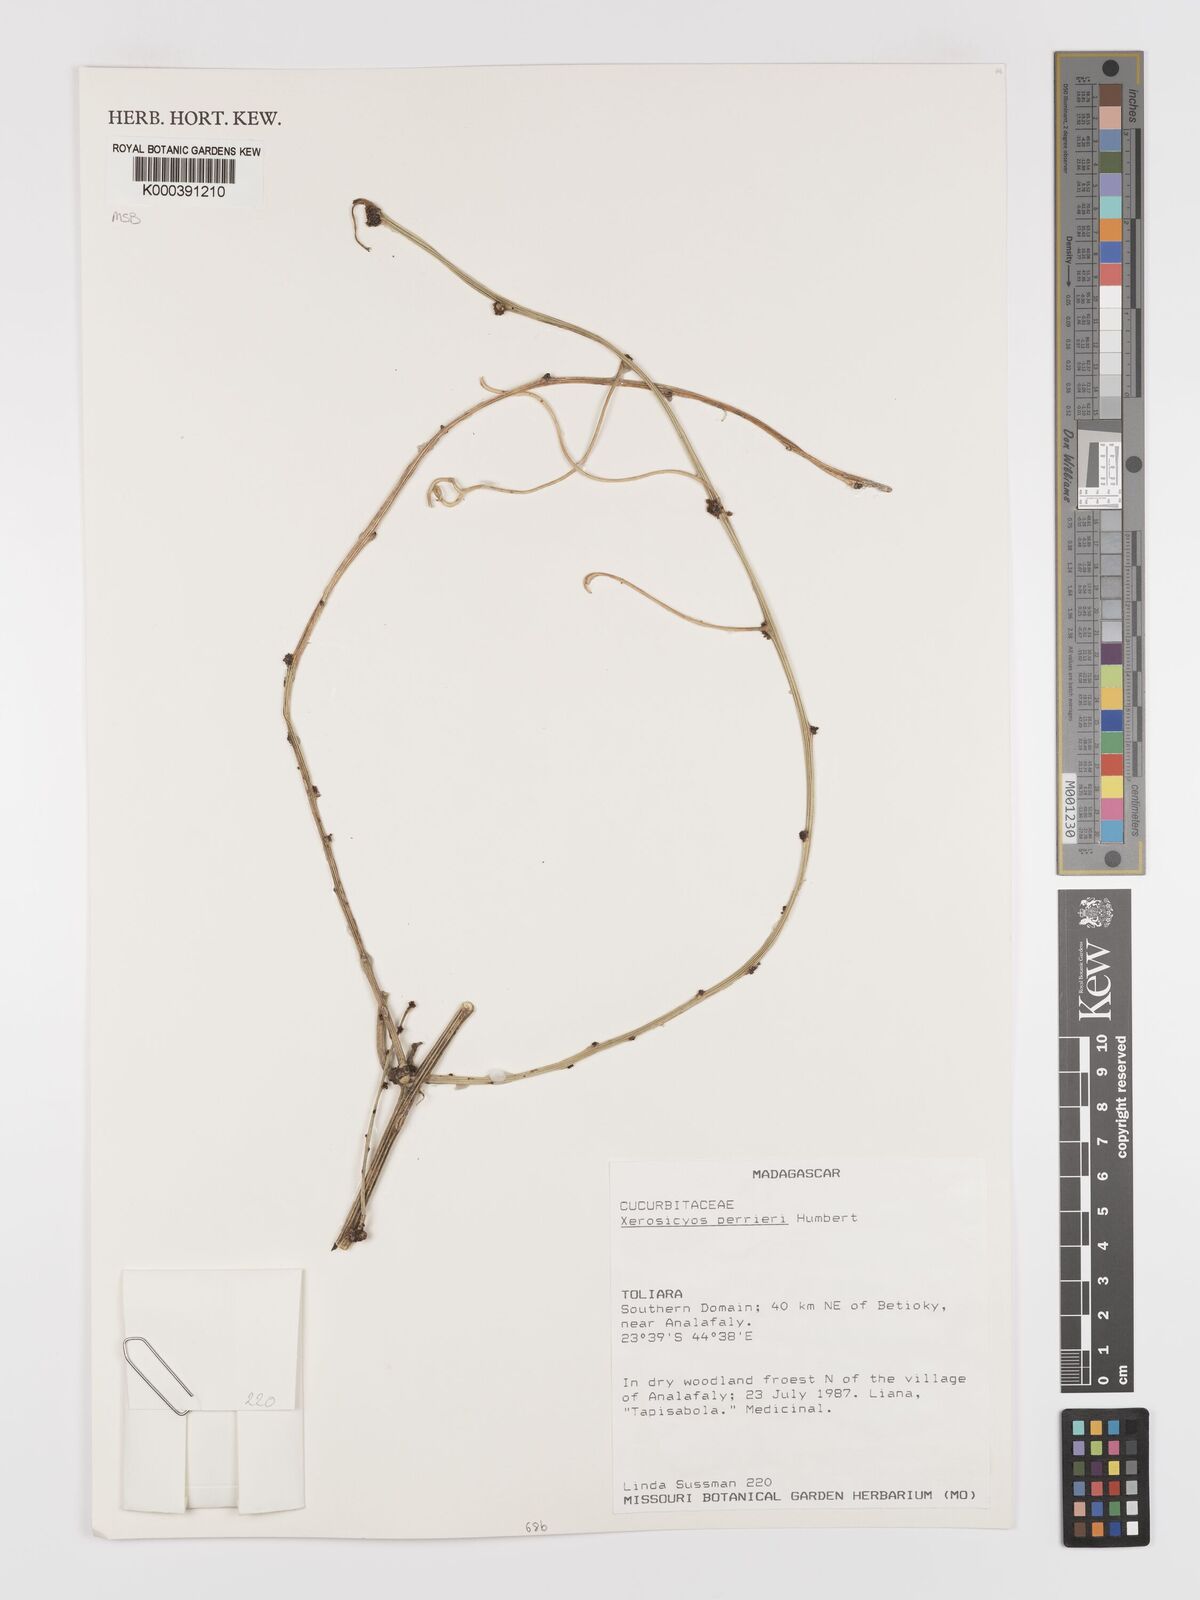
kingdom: Plantae
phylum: Tracheophyta
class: Magnoliopsida
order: Cucurbitales
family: Cucurbitaceae
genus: Xerosicyos
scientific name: Xerosicyos perrieri
